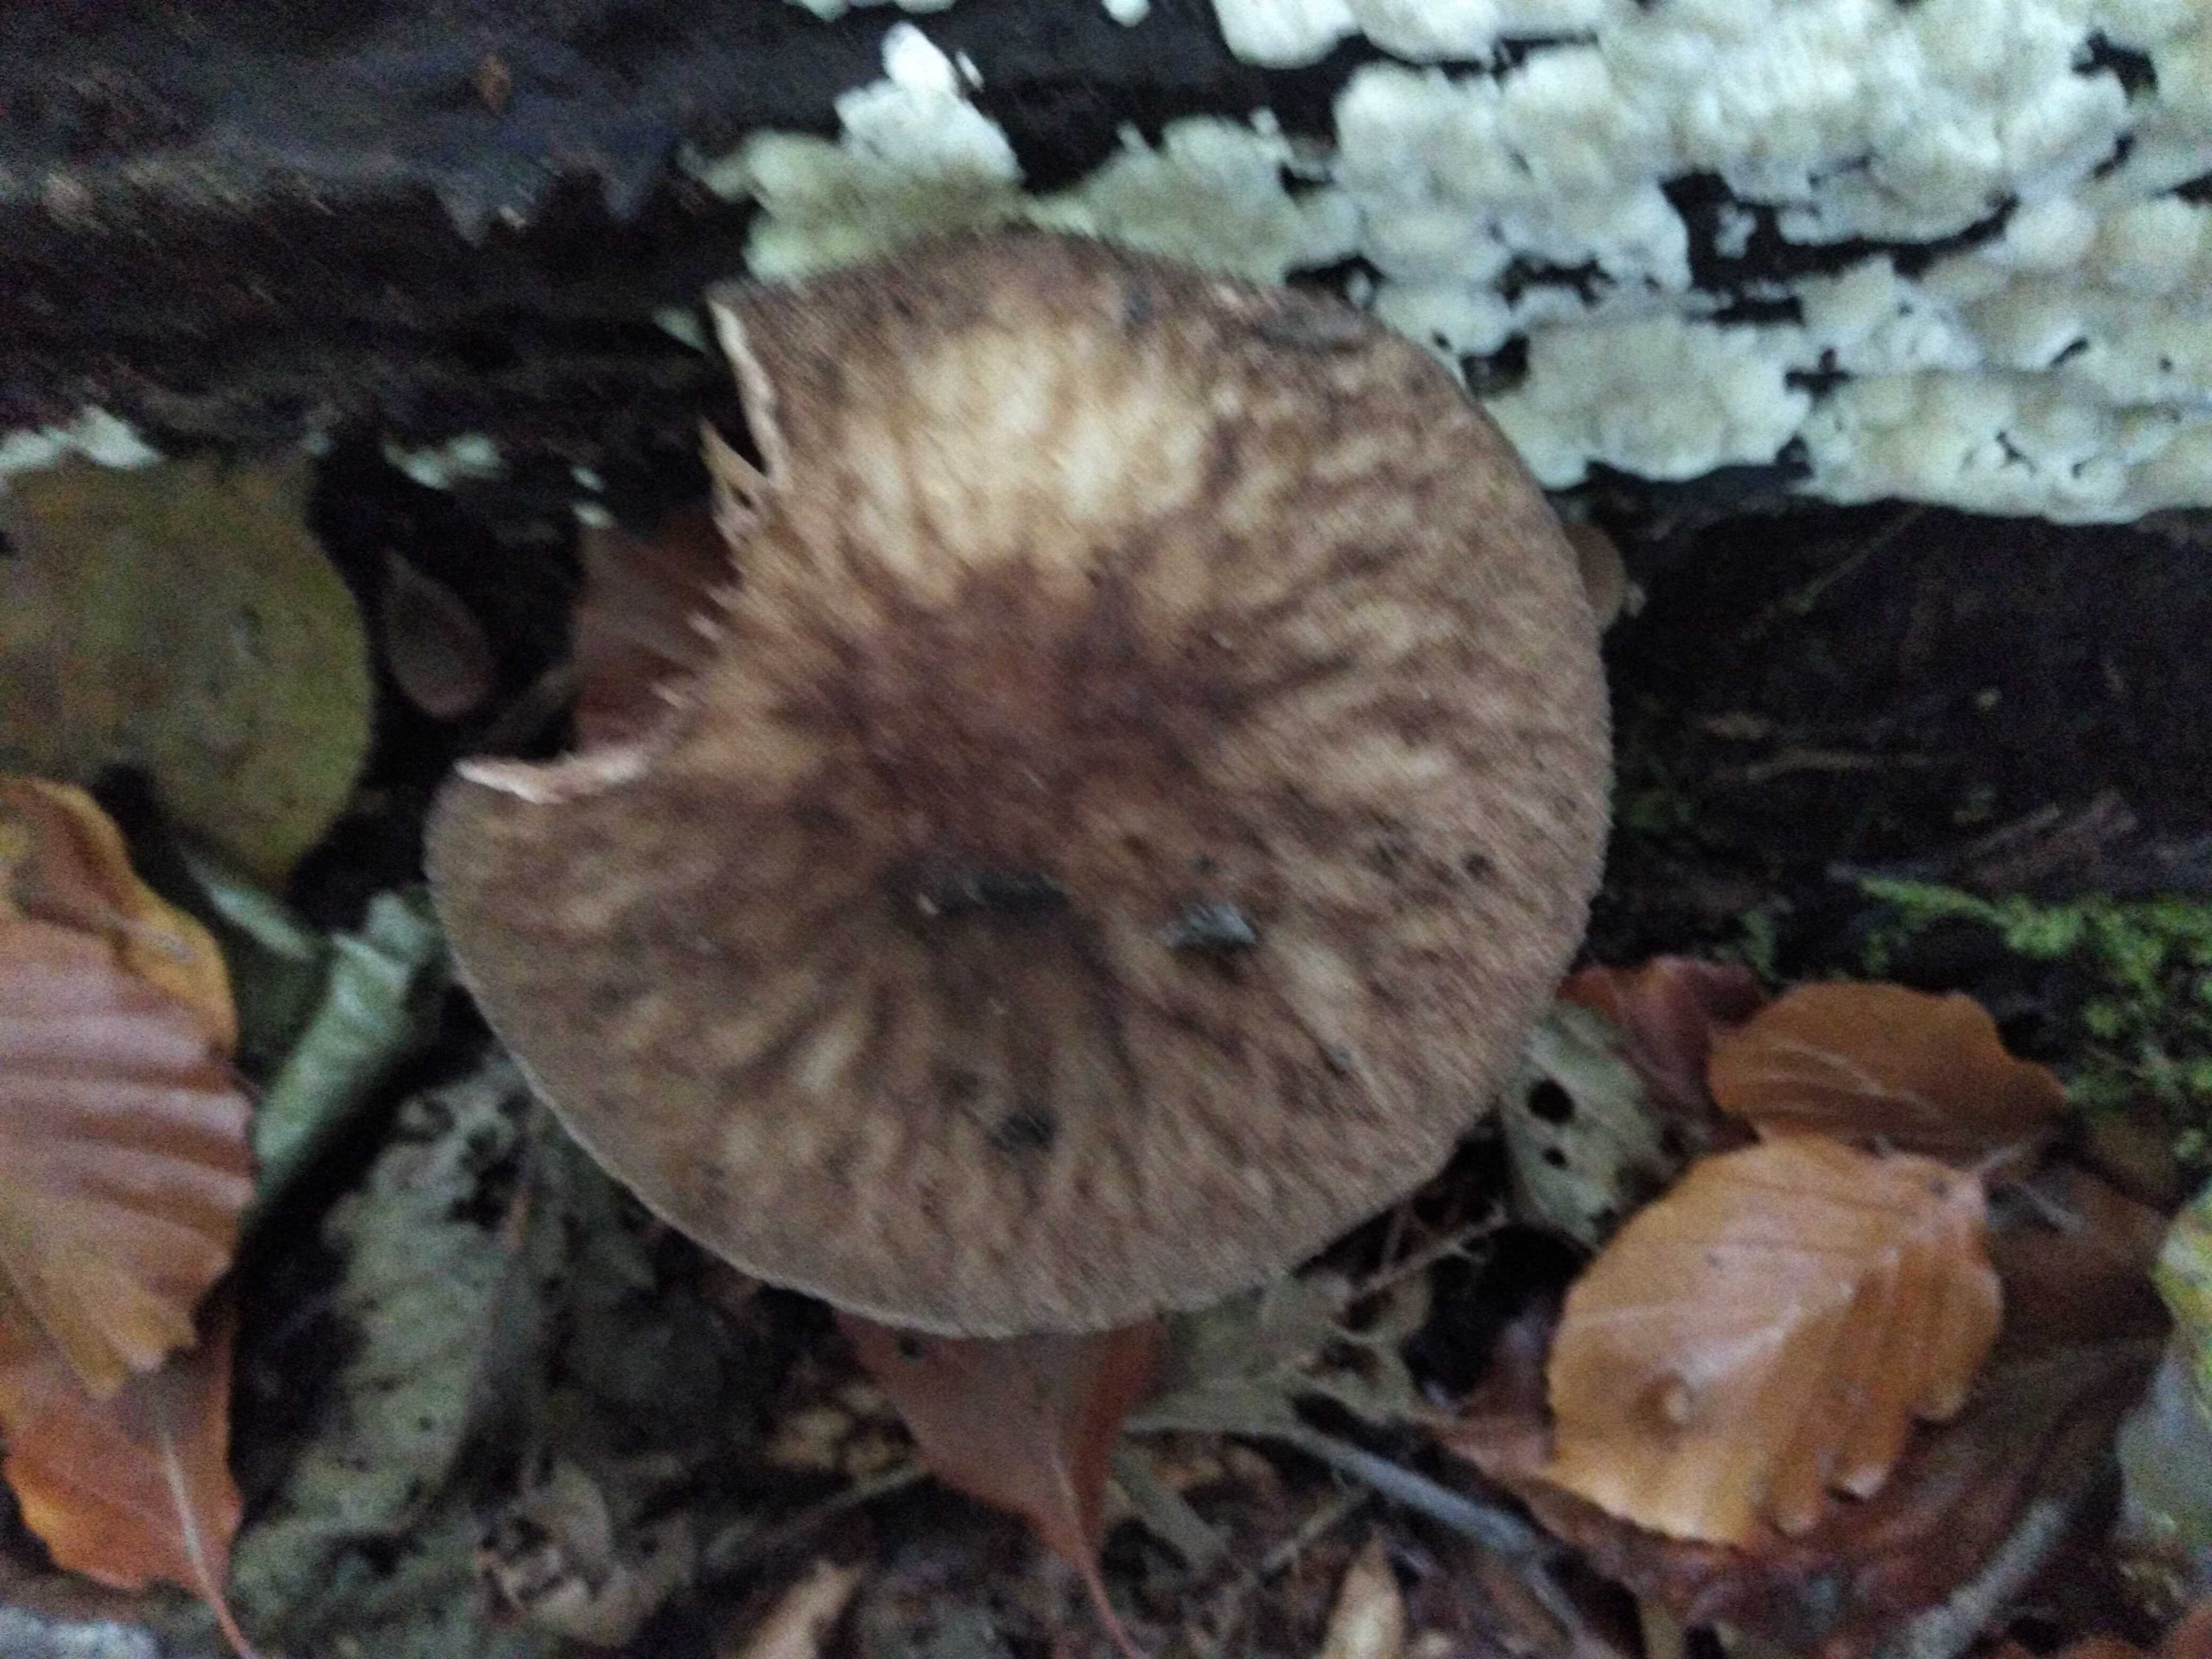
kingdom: Fungi
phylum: Basidiomycota
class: Agaricomycetes
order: Agaricales
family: Pluteaceae
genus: Pluteus
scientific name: Pluteus umbrosus
